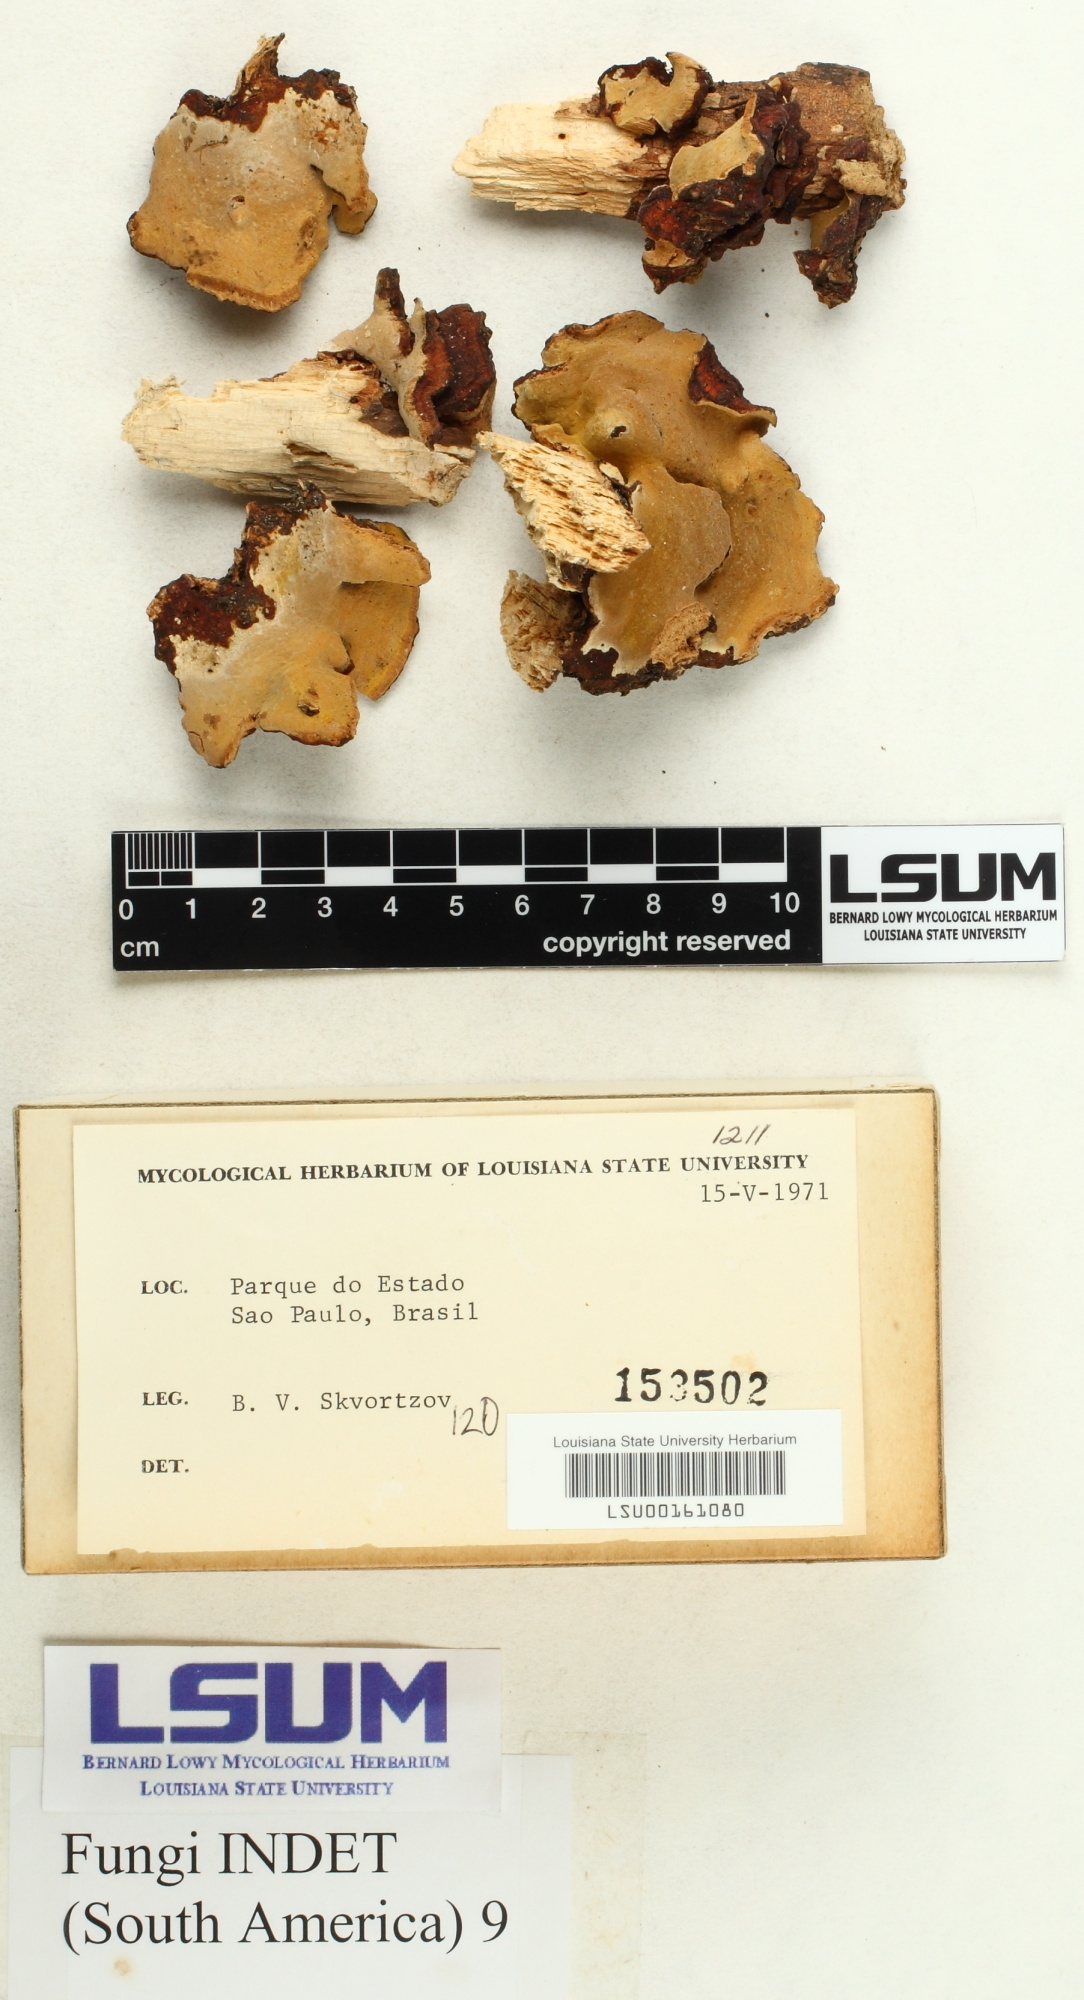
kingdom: Fungi
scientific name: Fungi
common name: Fungi
